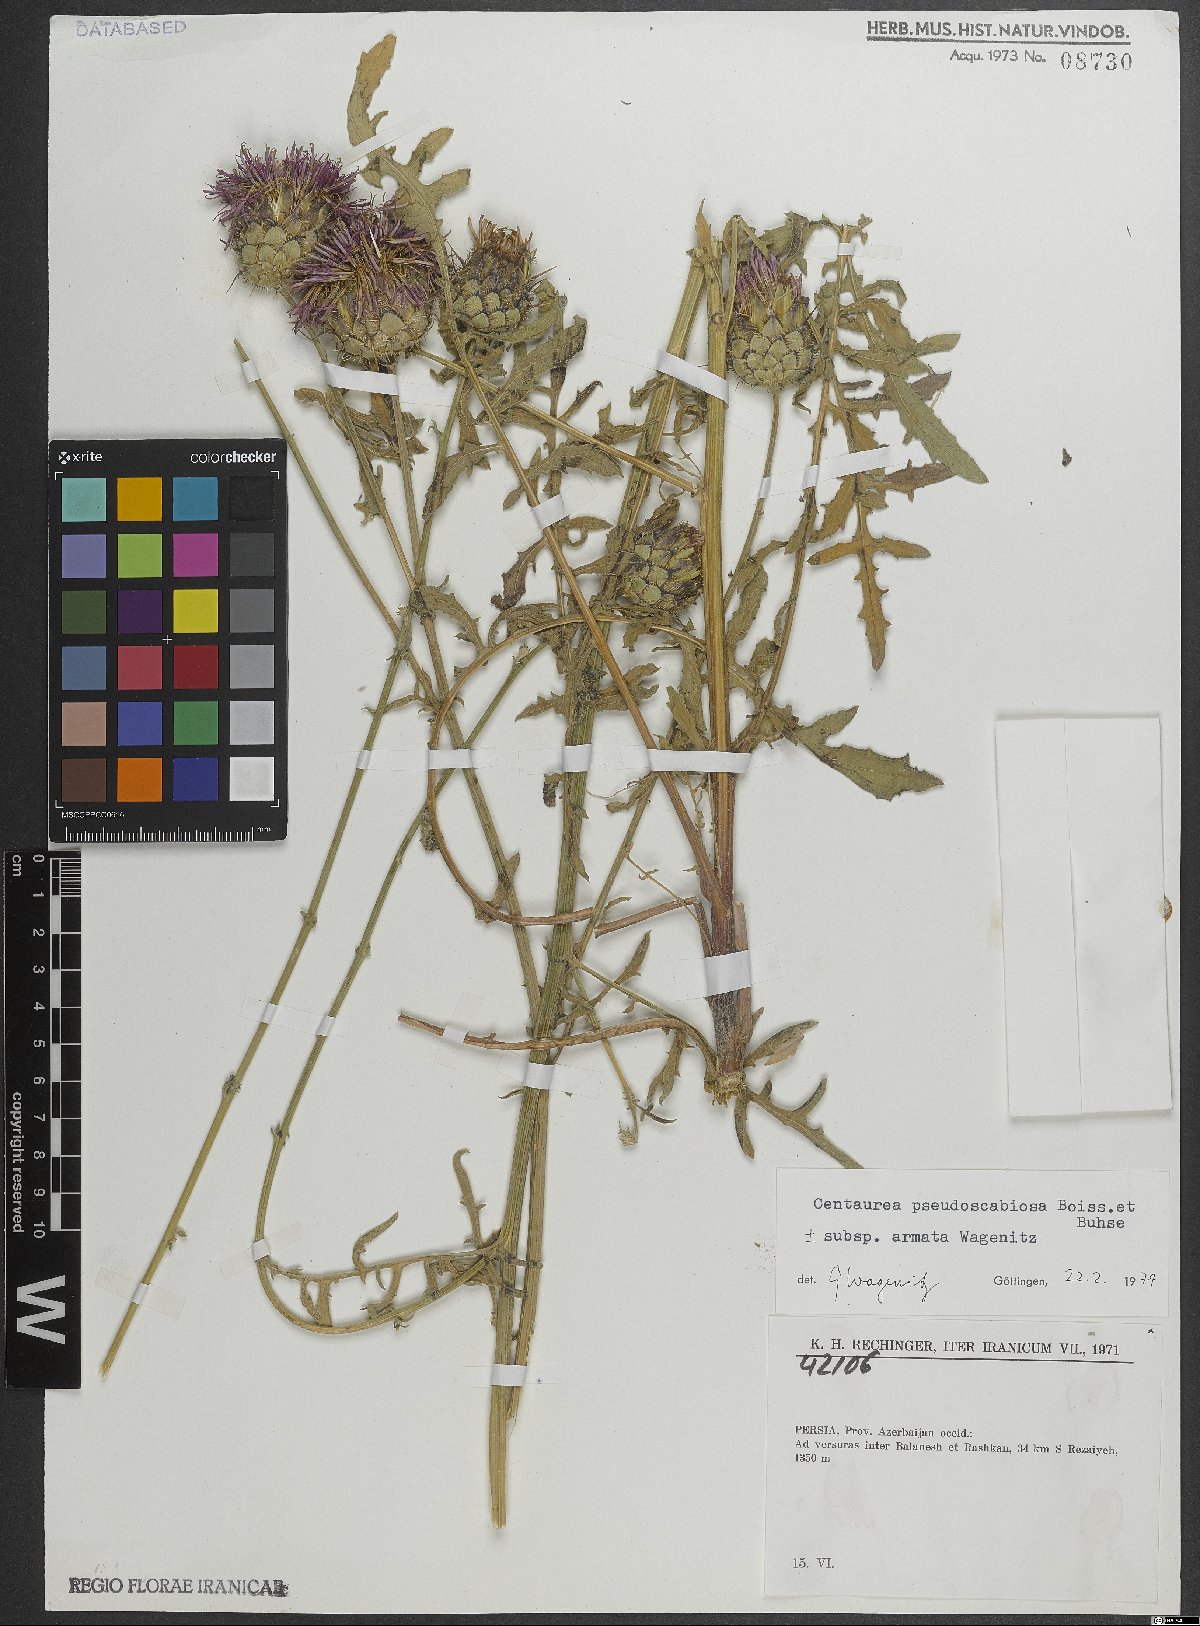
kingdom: Plantae
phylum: Tracheophyta
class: Magnoliopsida
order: Asterales
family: Asteraceae
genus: Centaurea
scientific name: Centaurea pseudoscabiosa
